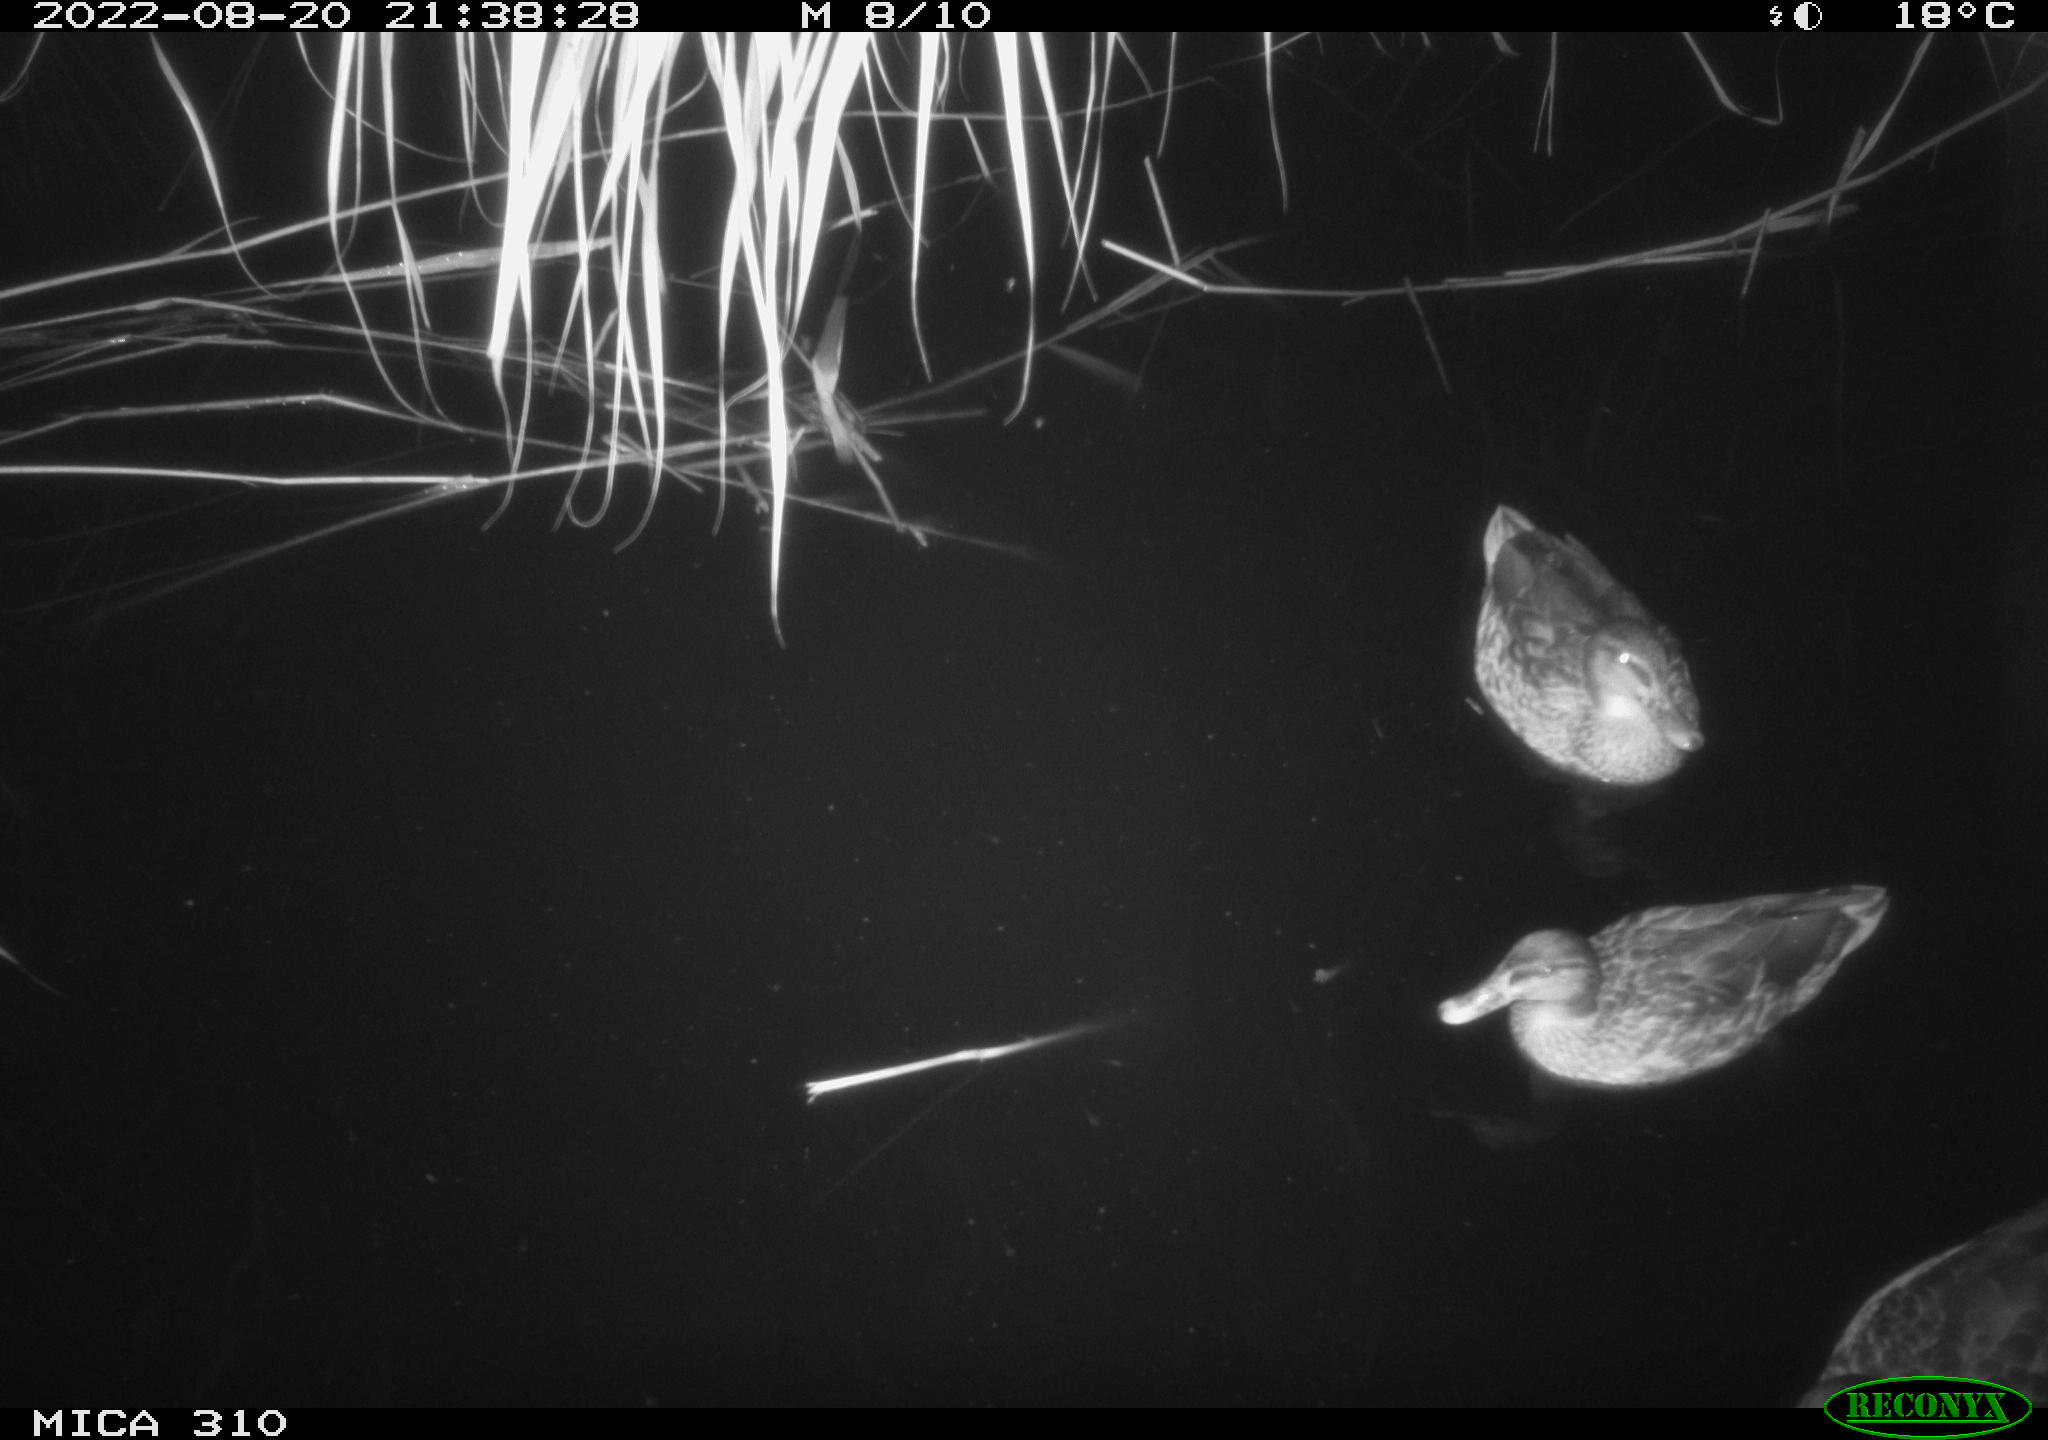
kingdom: Animalia
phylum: Chordata
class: Aves
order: Anseriformes
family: Anatidae
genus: Anas
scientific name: Anas platyrhynchos
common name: Mallard
